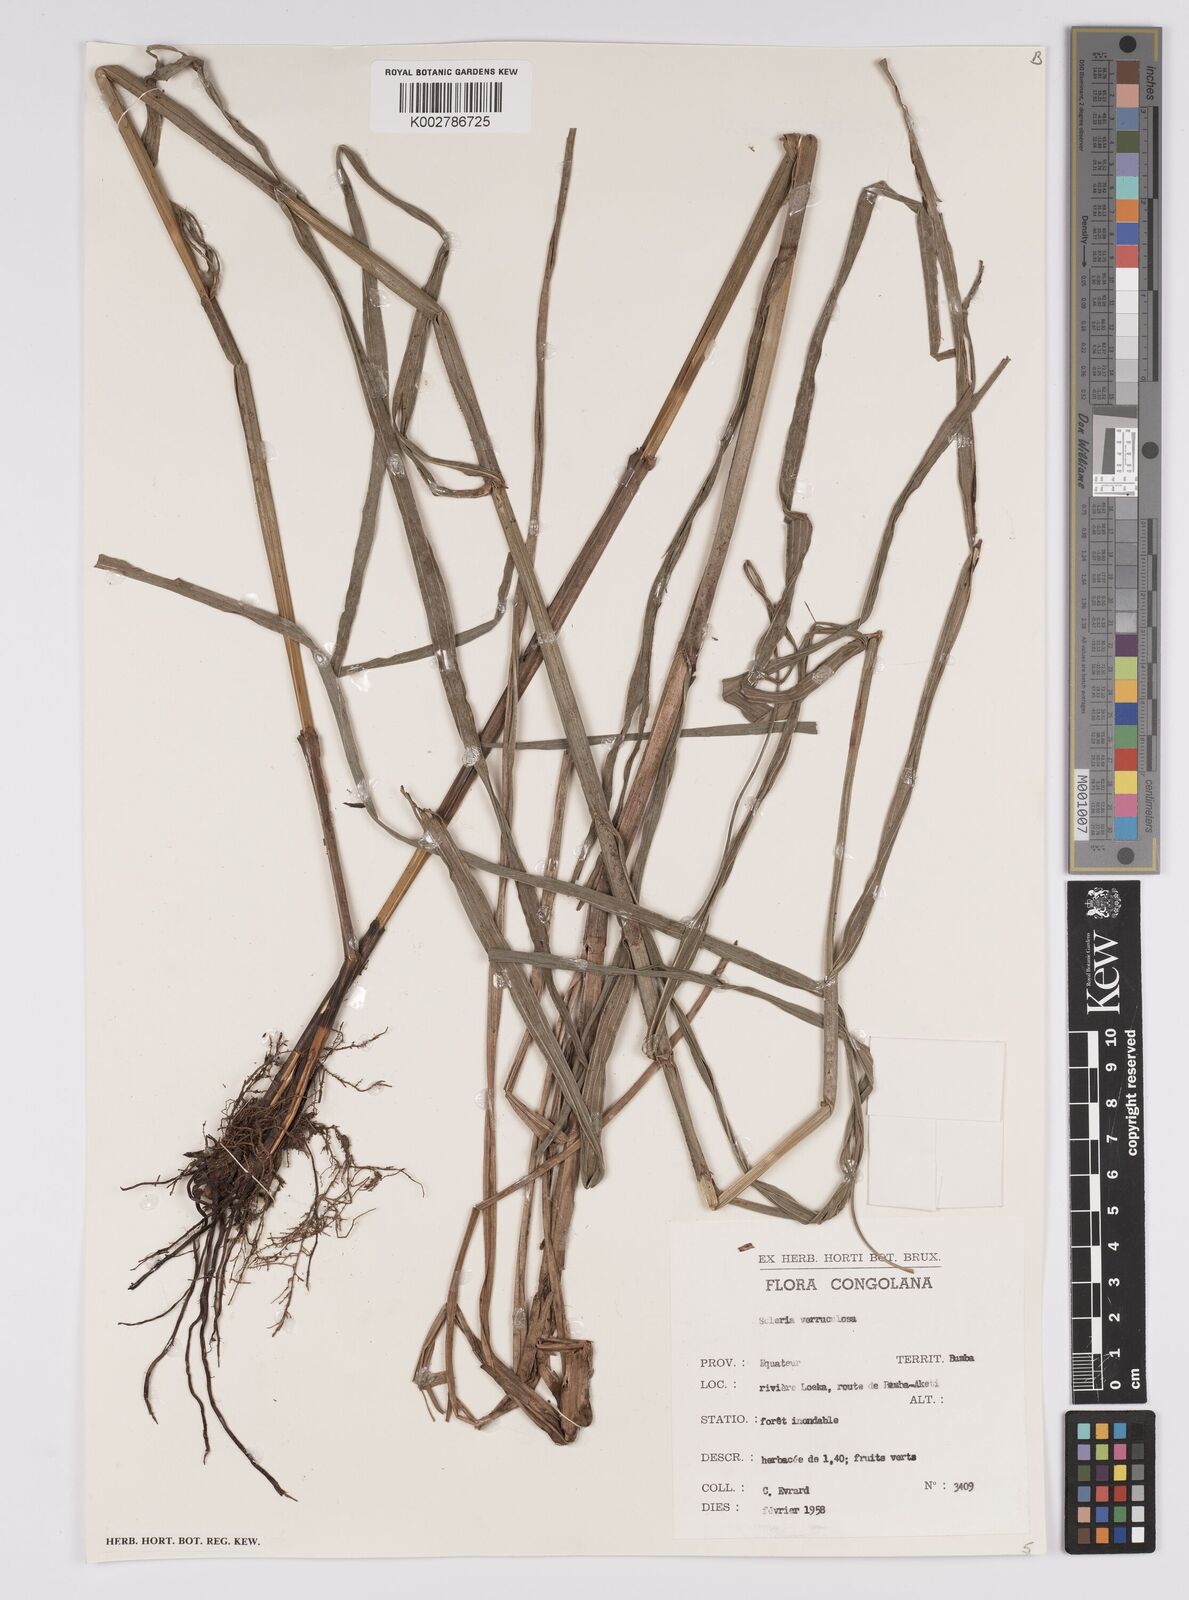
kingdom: Plantae
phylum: Tracheophyta
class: Liliopsida
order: Poales
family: Cyperaceae
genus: Scleria
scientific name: Scleria verrucosa
